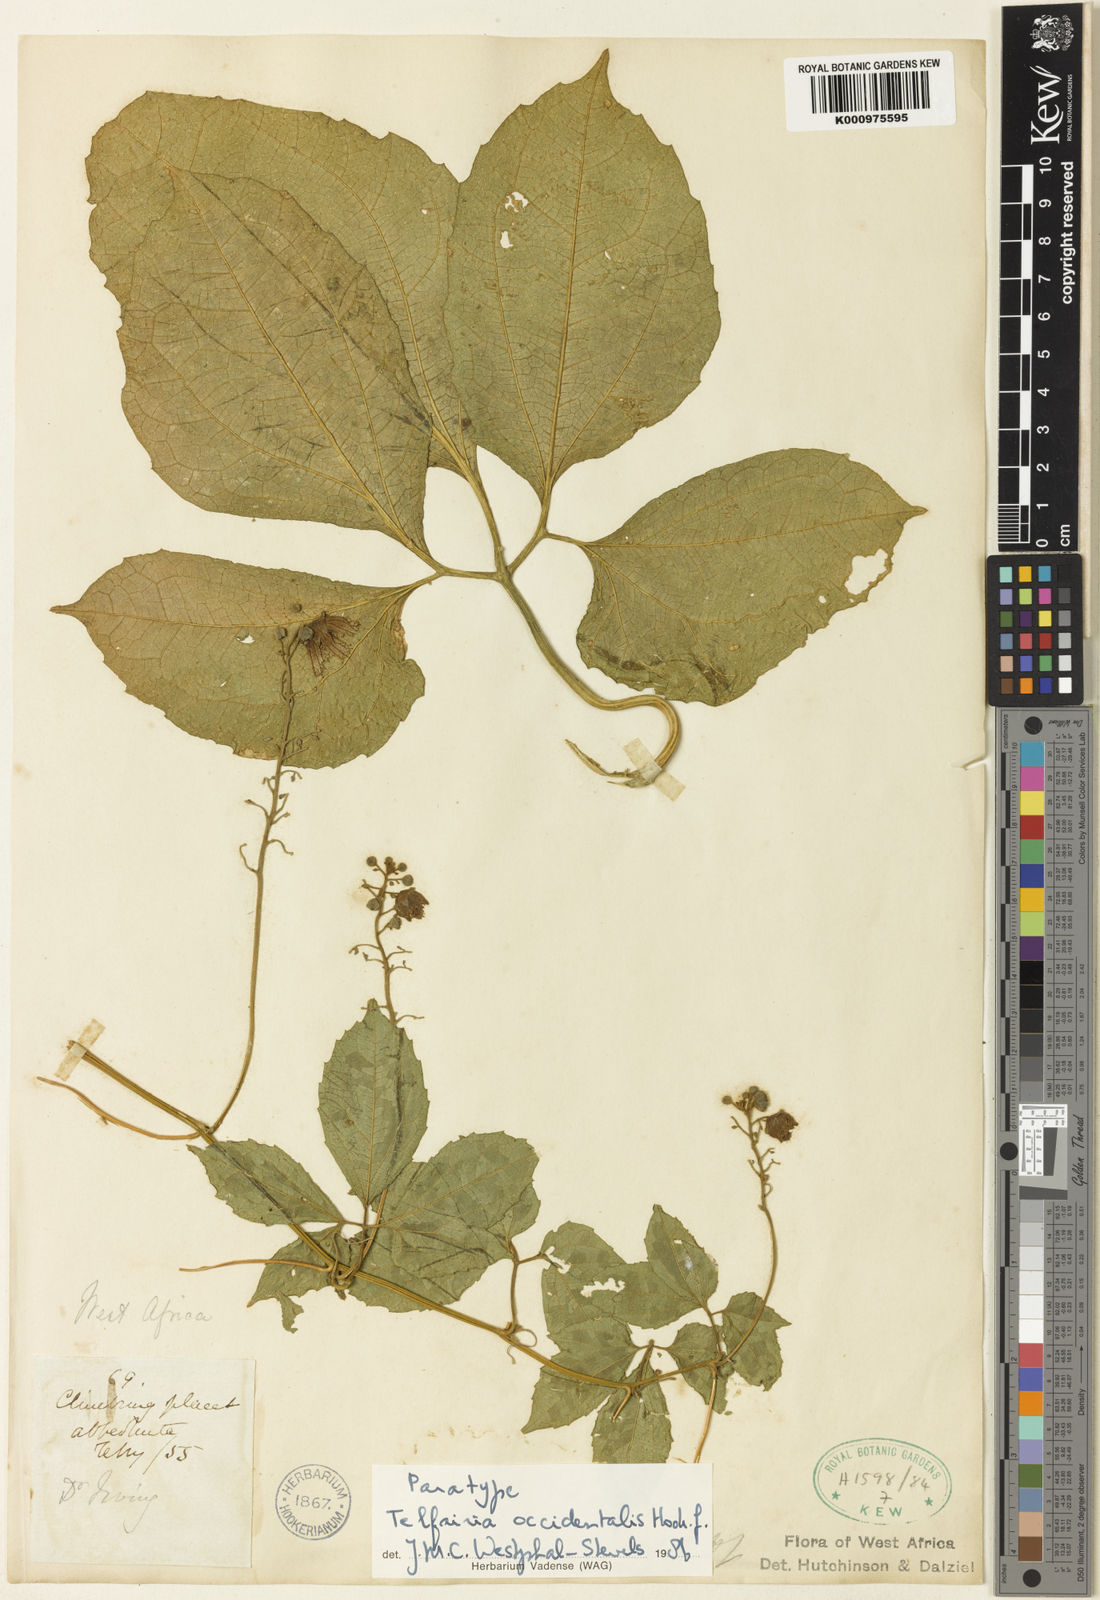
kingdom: Plantae
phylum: Tracheophyta
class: Magnoliopsida
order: Cucurbitales
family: Cucurbitaceae
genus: Telfairia
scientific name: Telfairia occidentalis
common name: Oysternut
